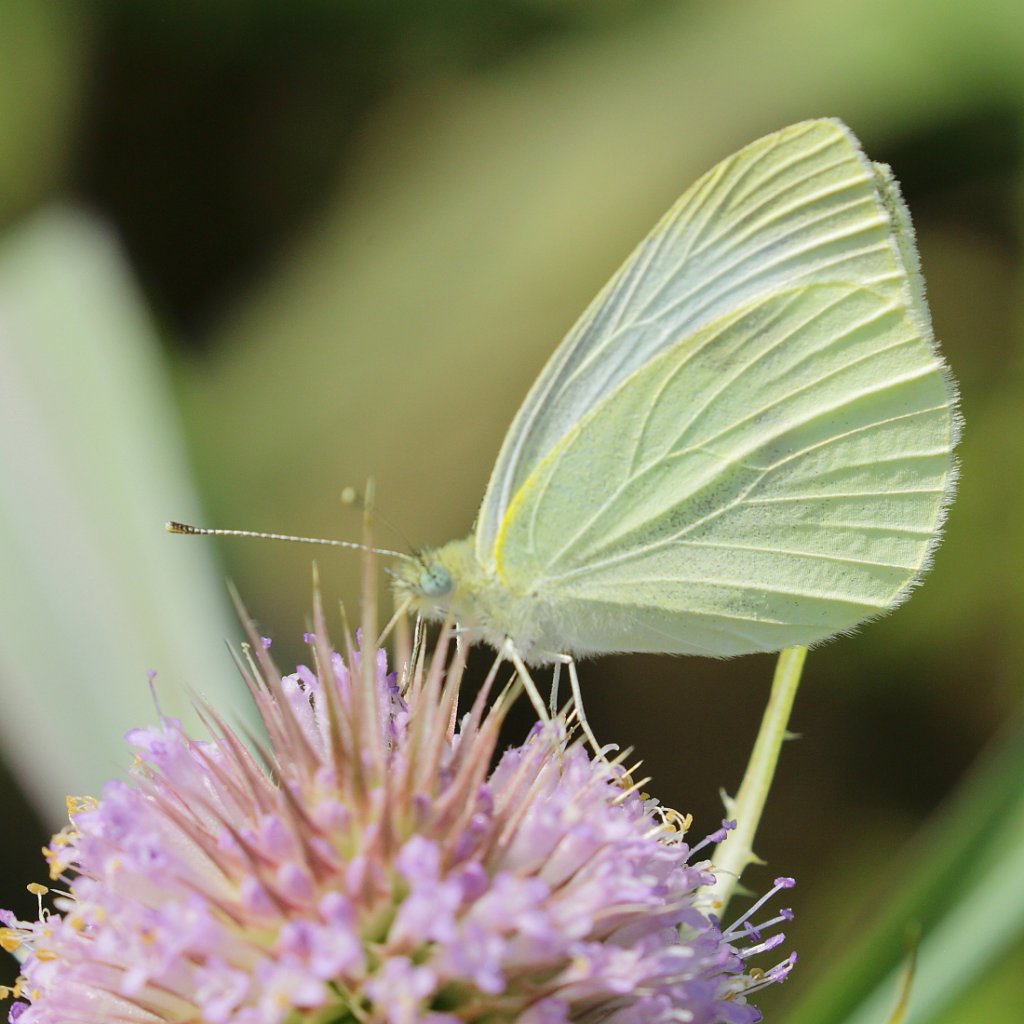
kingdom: Animalia
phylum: Arthropoda
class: Insecta
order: Lepidoptera
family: Pieridae
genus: Pieris
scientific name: Pieris rapae
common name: Cabbage White
